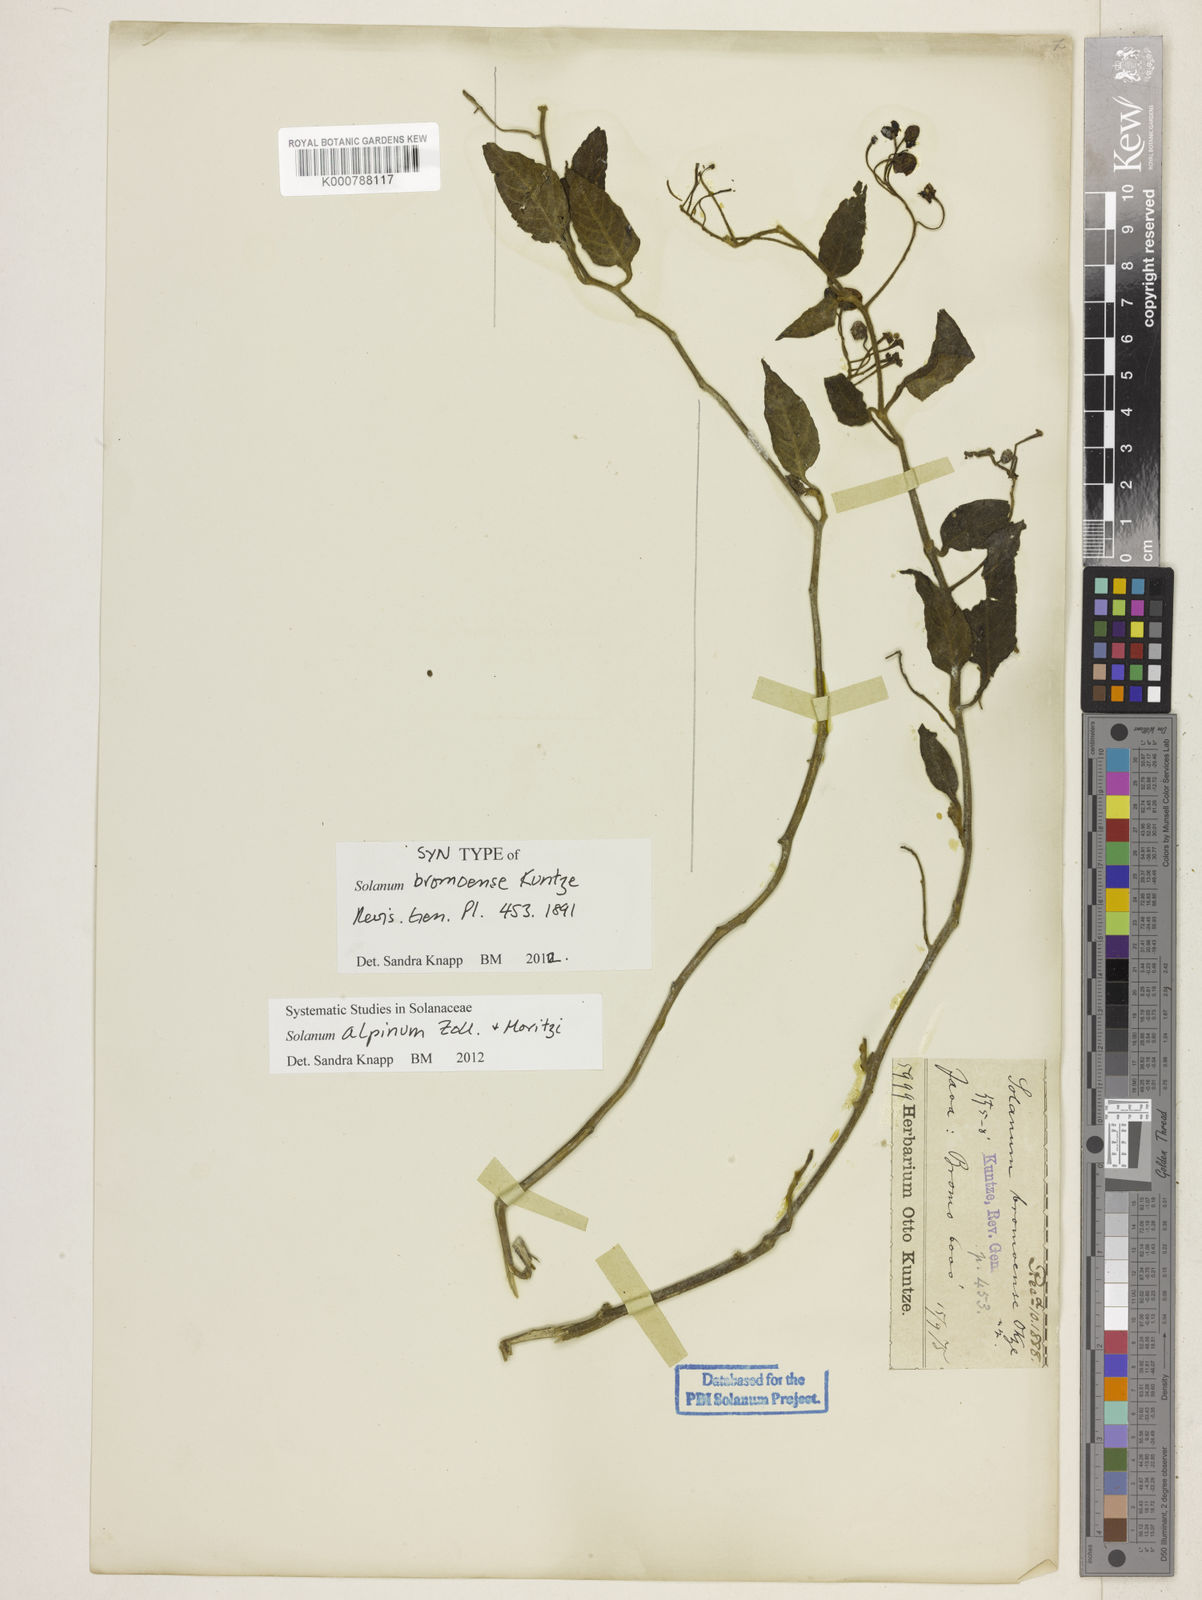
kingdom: Plantae
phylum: Tracheophyta
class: Magnoliopsida
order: Solanales
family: Solanaceae
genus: Solanum
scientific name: Solanum nigrum
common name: Black nightshade
